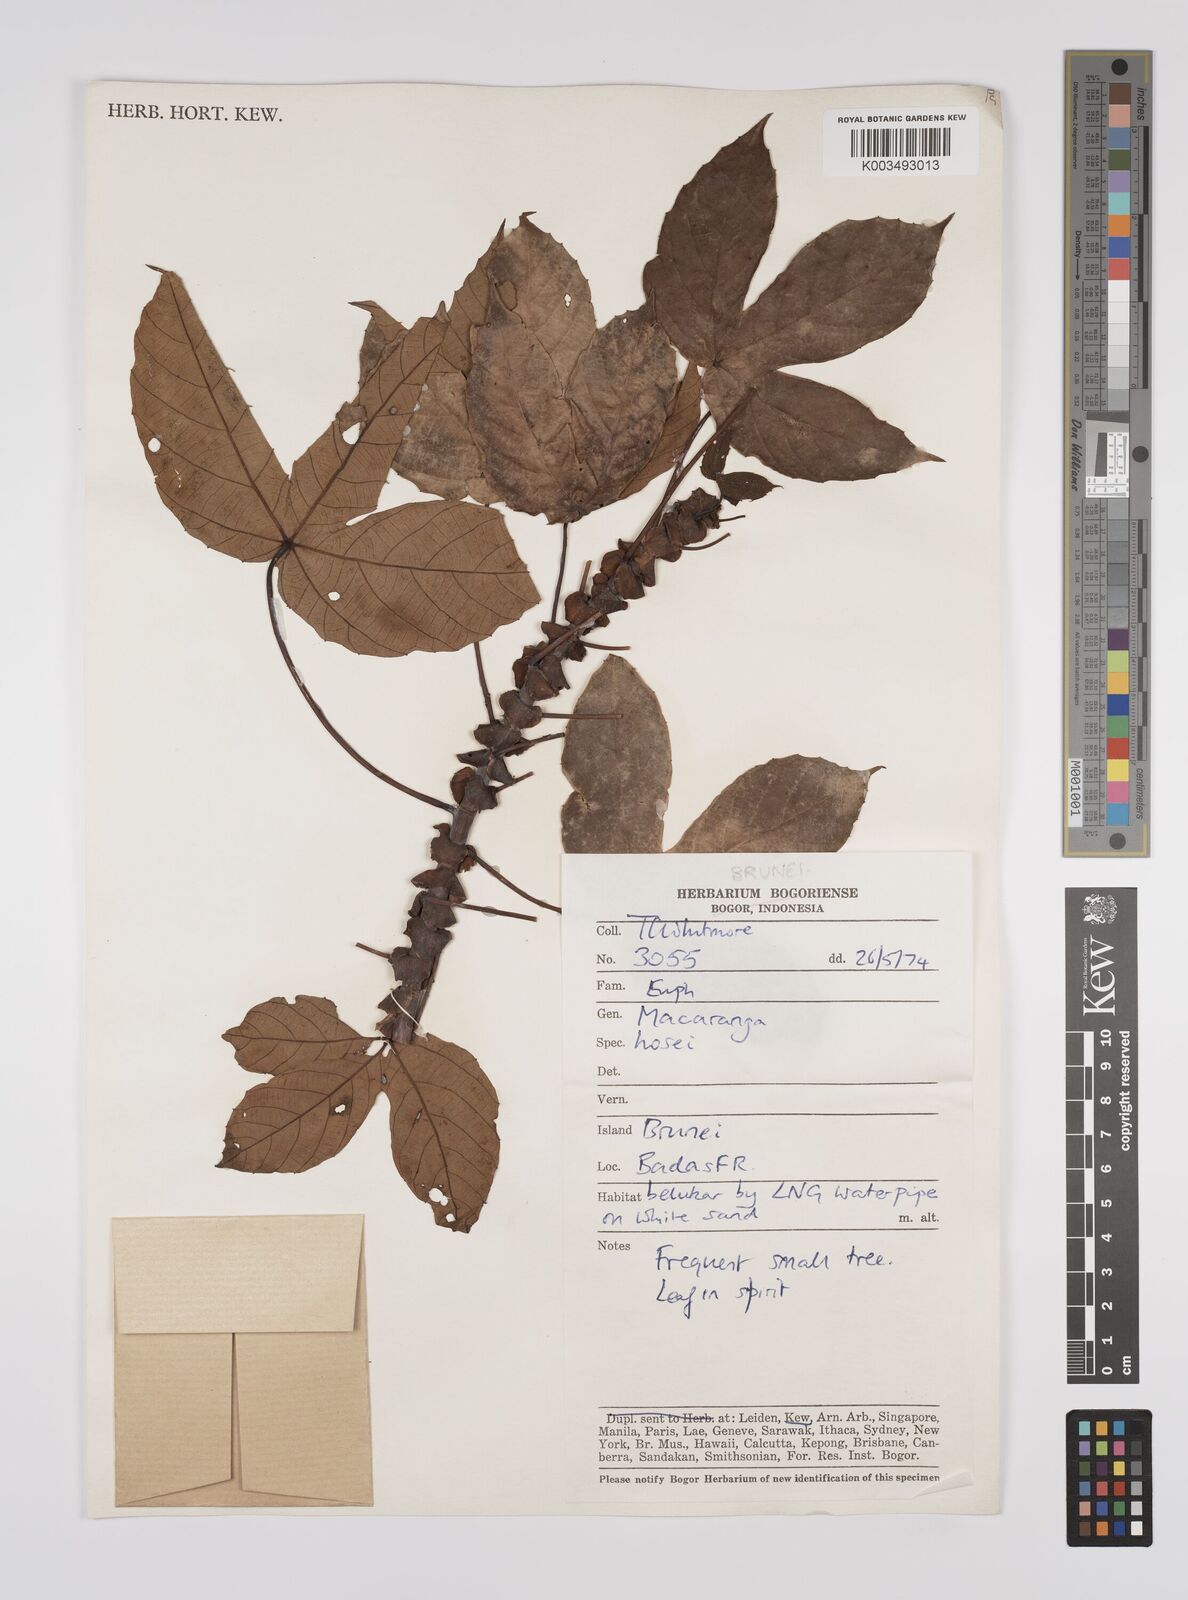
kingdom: Plantae
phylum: Tracheophyta
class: Magnoliopsida
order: Malpighiales
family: Euphorbiaceae
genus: Macaranga
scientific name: Macaranga hosei
